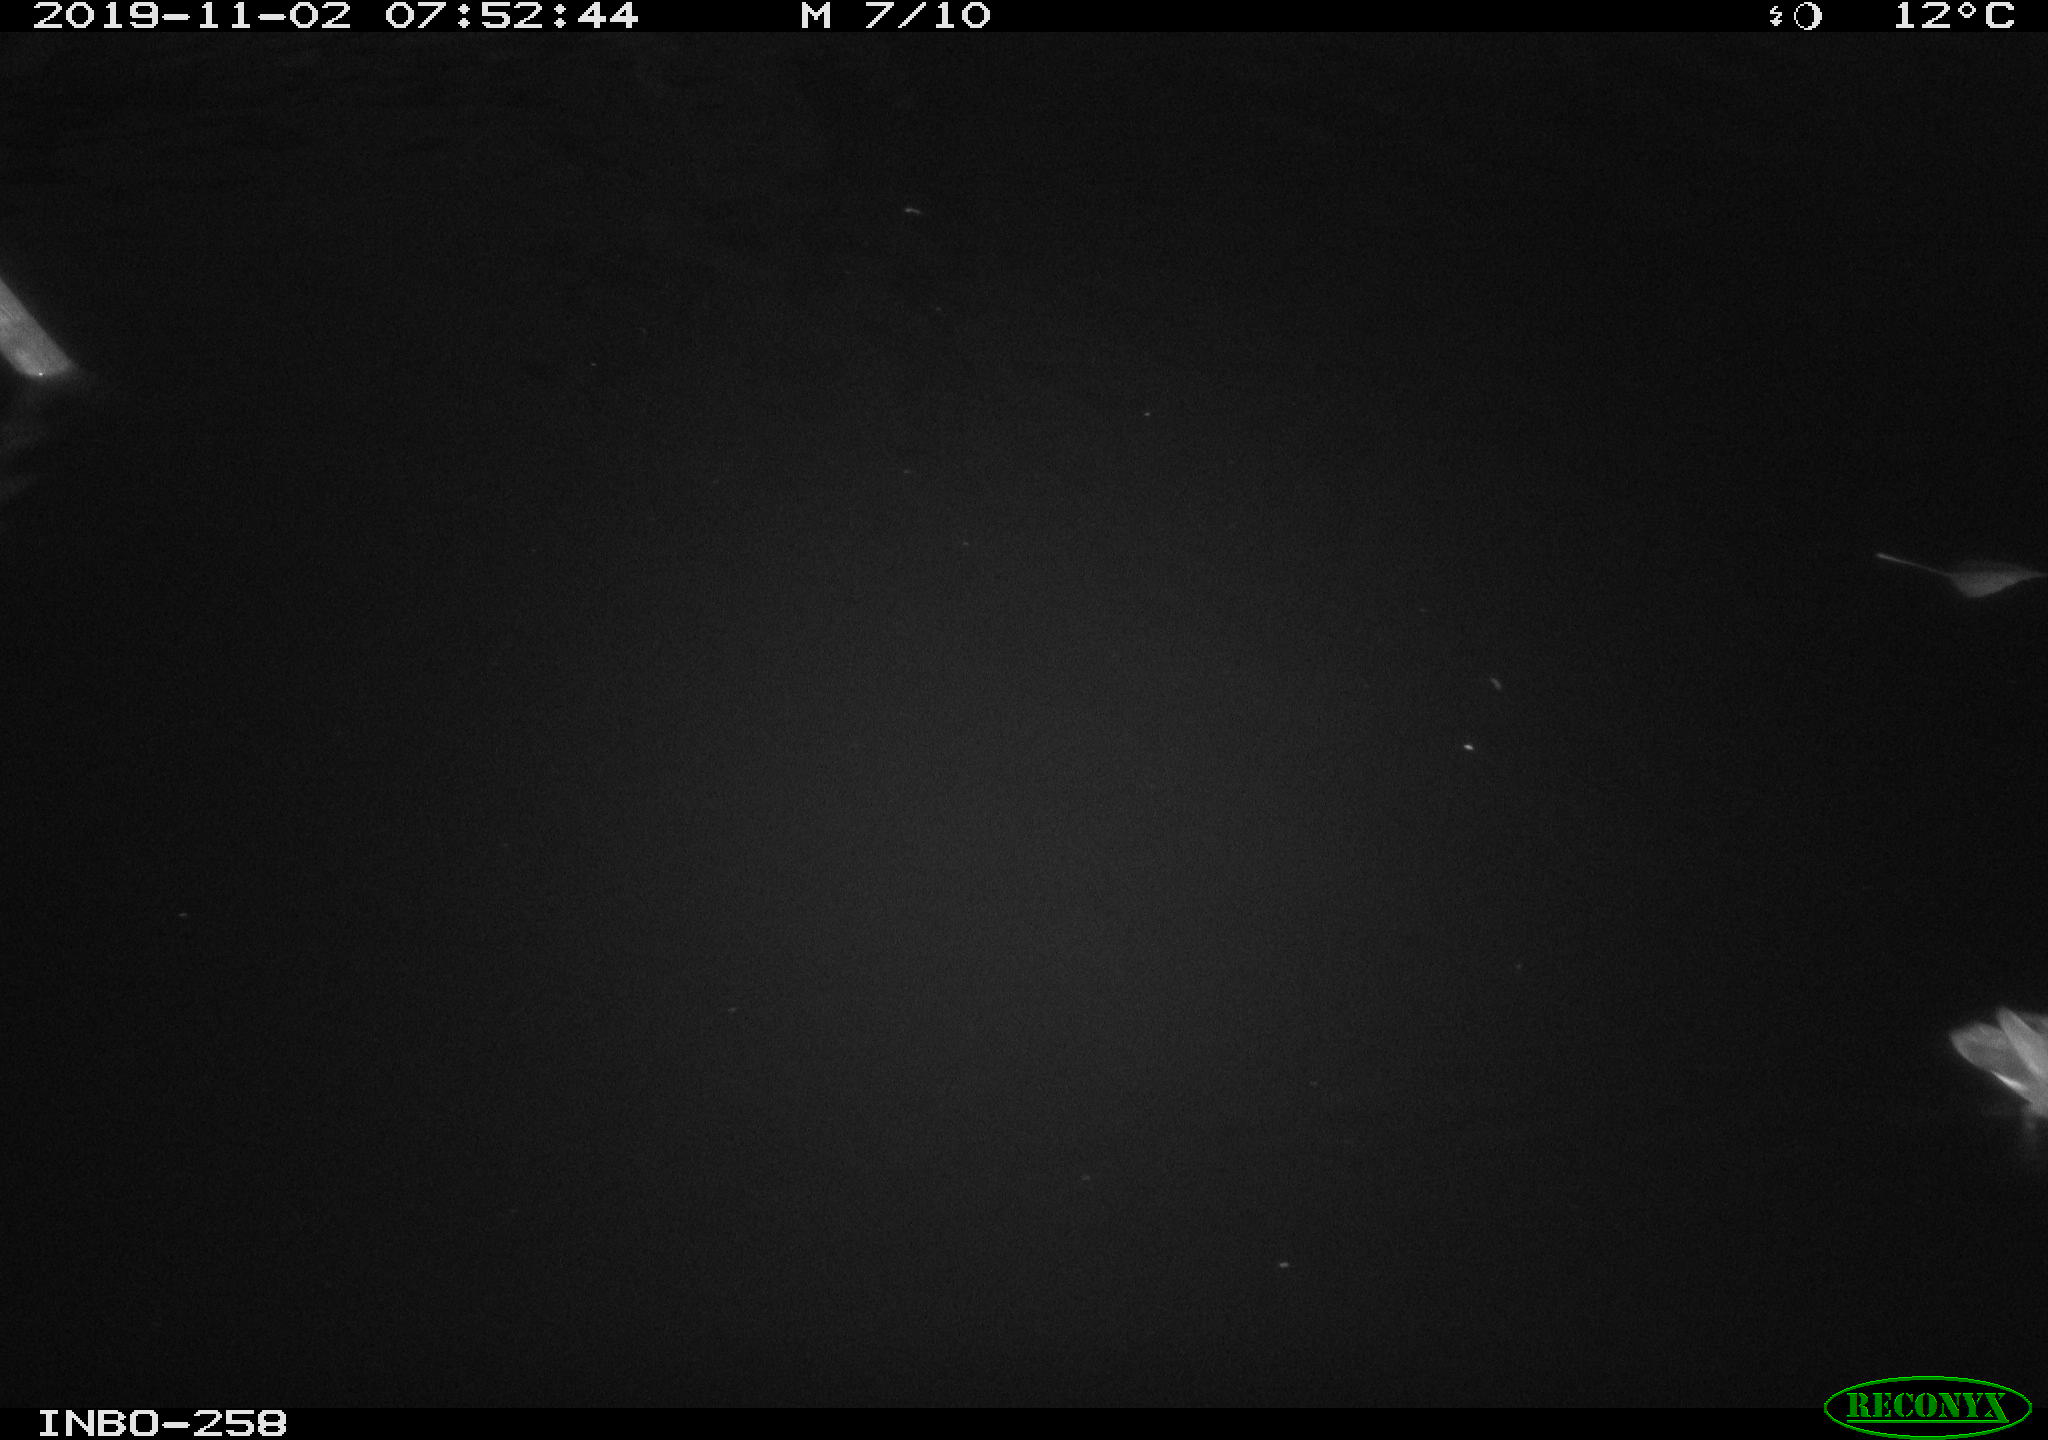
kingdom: Animalia
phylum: Chordata
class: Aves
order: Gruiformes
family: Rallidae
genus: Gallinula
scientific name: Gallinula chloropus
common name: Common moorhen
